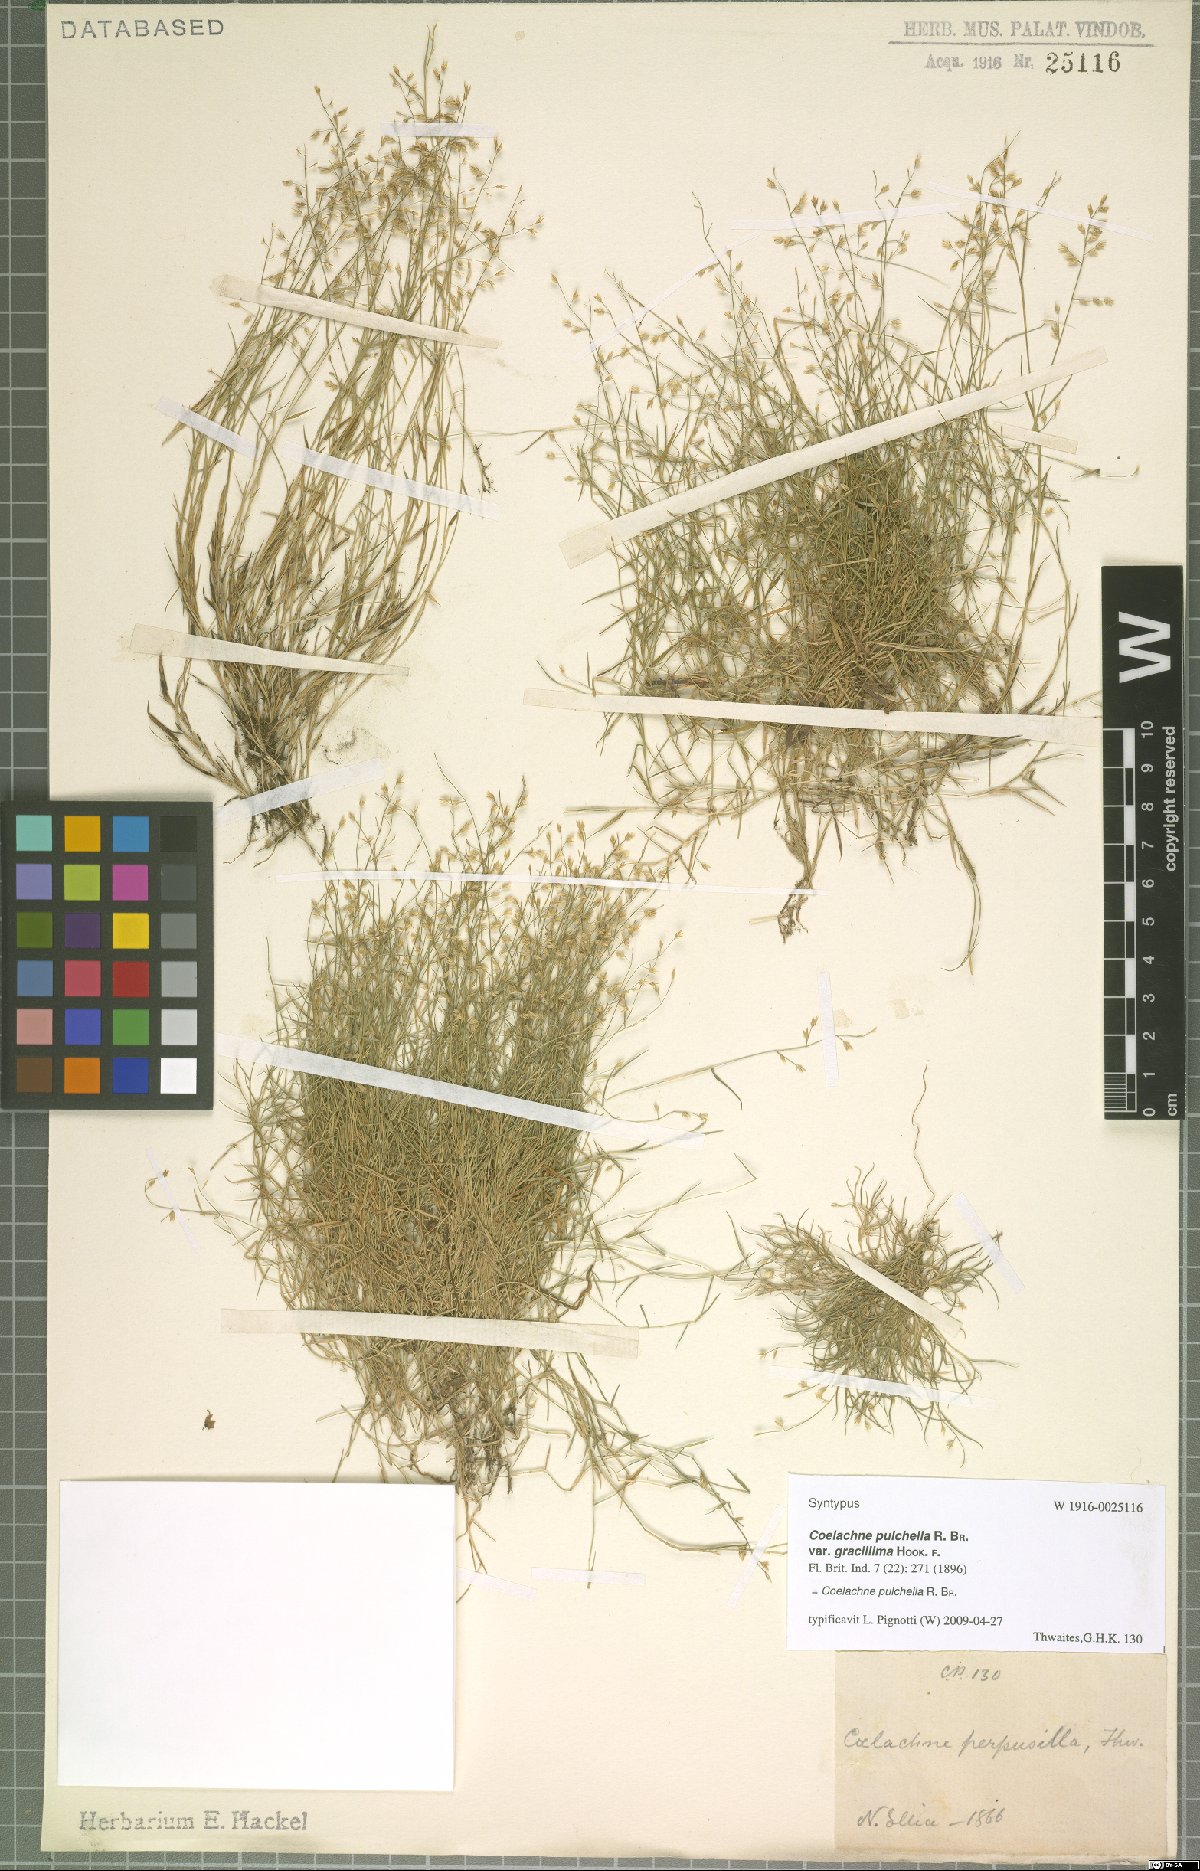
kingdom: Plantae
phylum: Tracheophyta
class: Liliopsida
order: Poales
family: Poaceae
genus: Coelachne
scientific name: Coelachne pulchella
